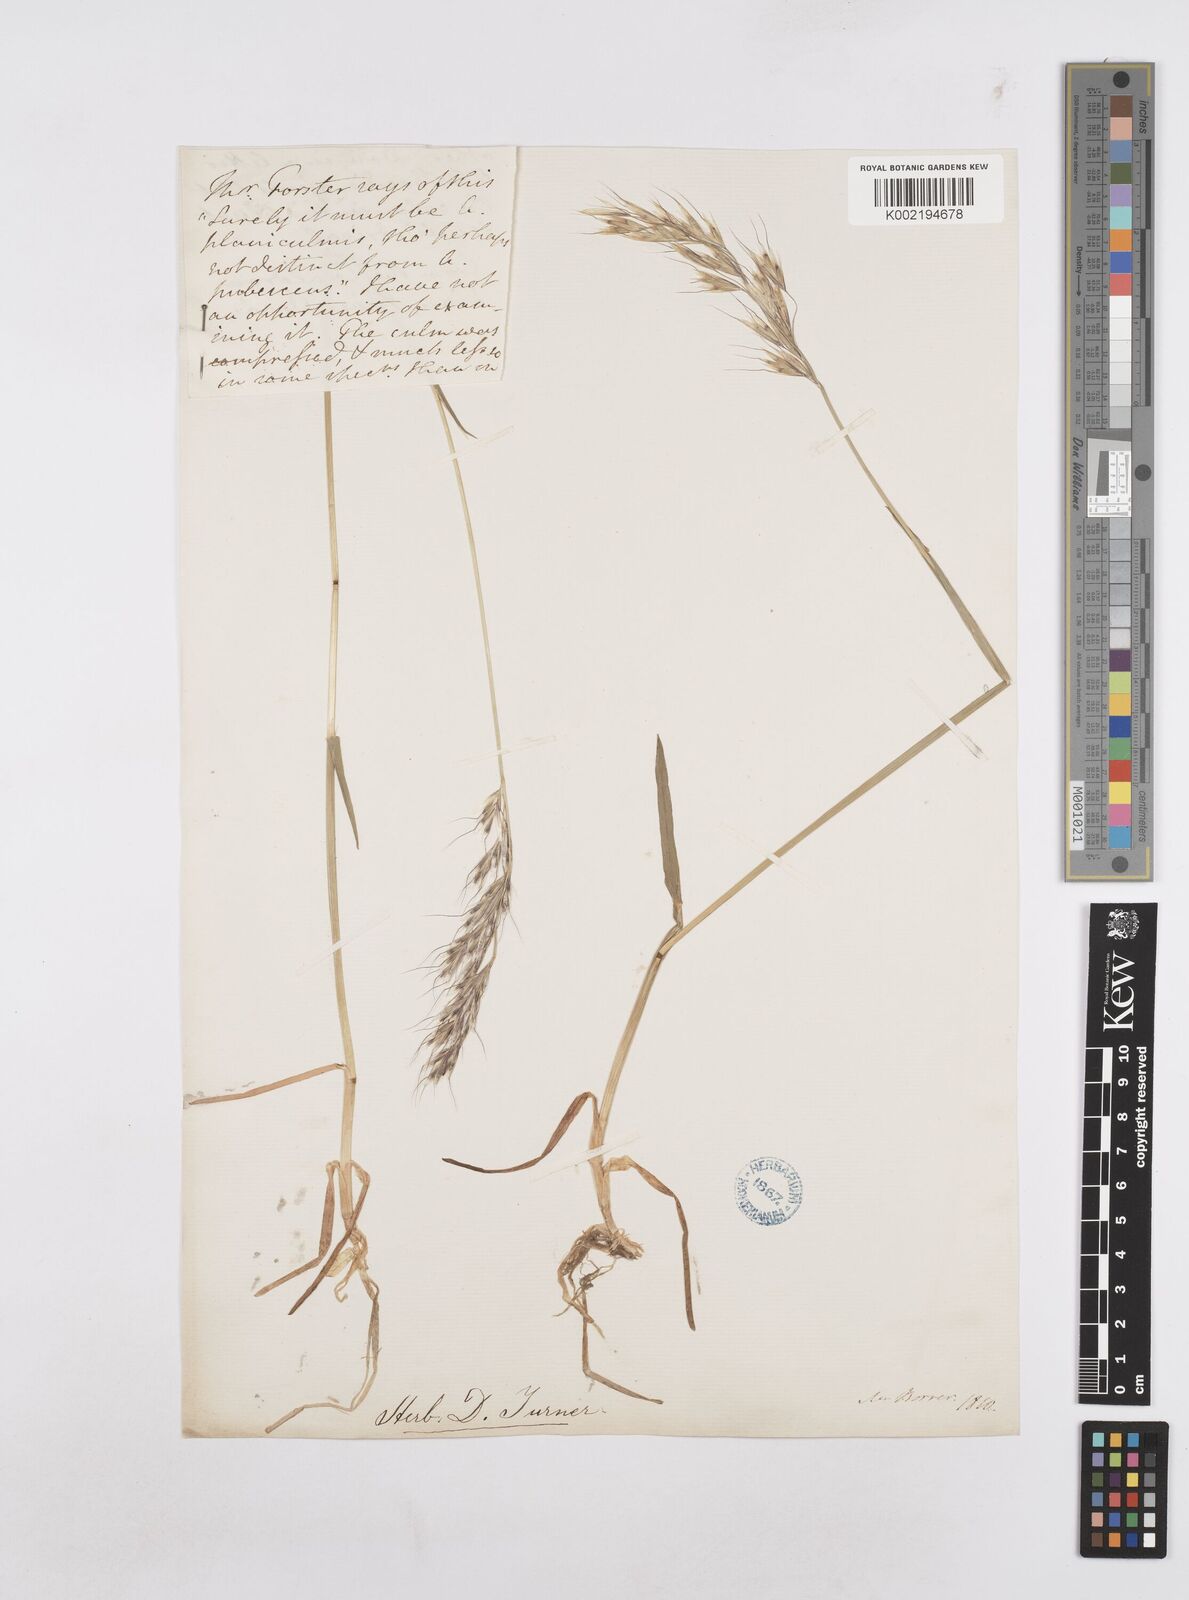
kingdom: Plantae
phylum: Tracheophyta
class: Liliopsida
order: Poales
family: Poaceae
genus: Avenula
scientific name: Avenula pubescens
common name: Downy alpine oatgrass
